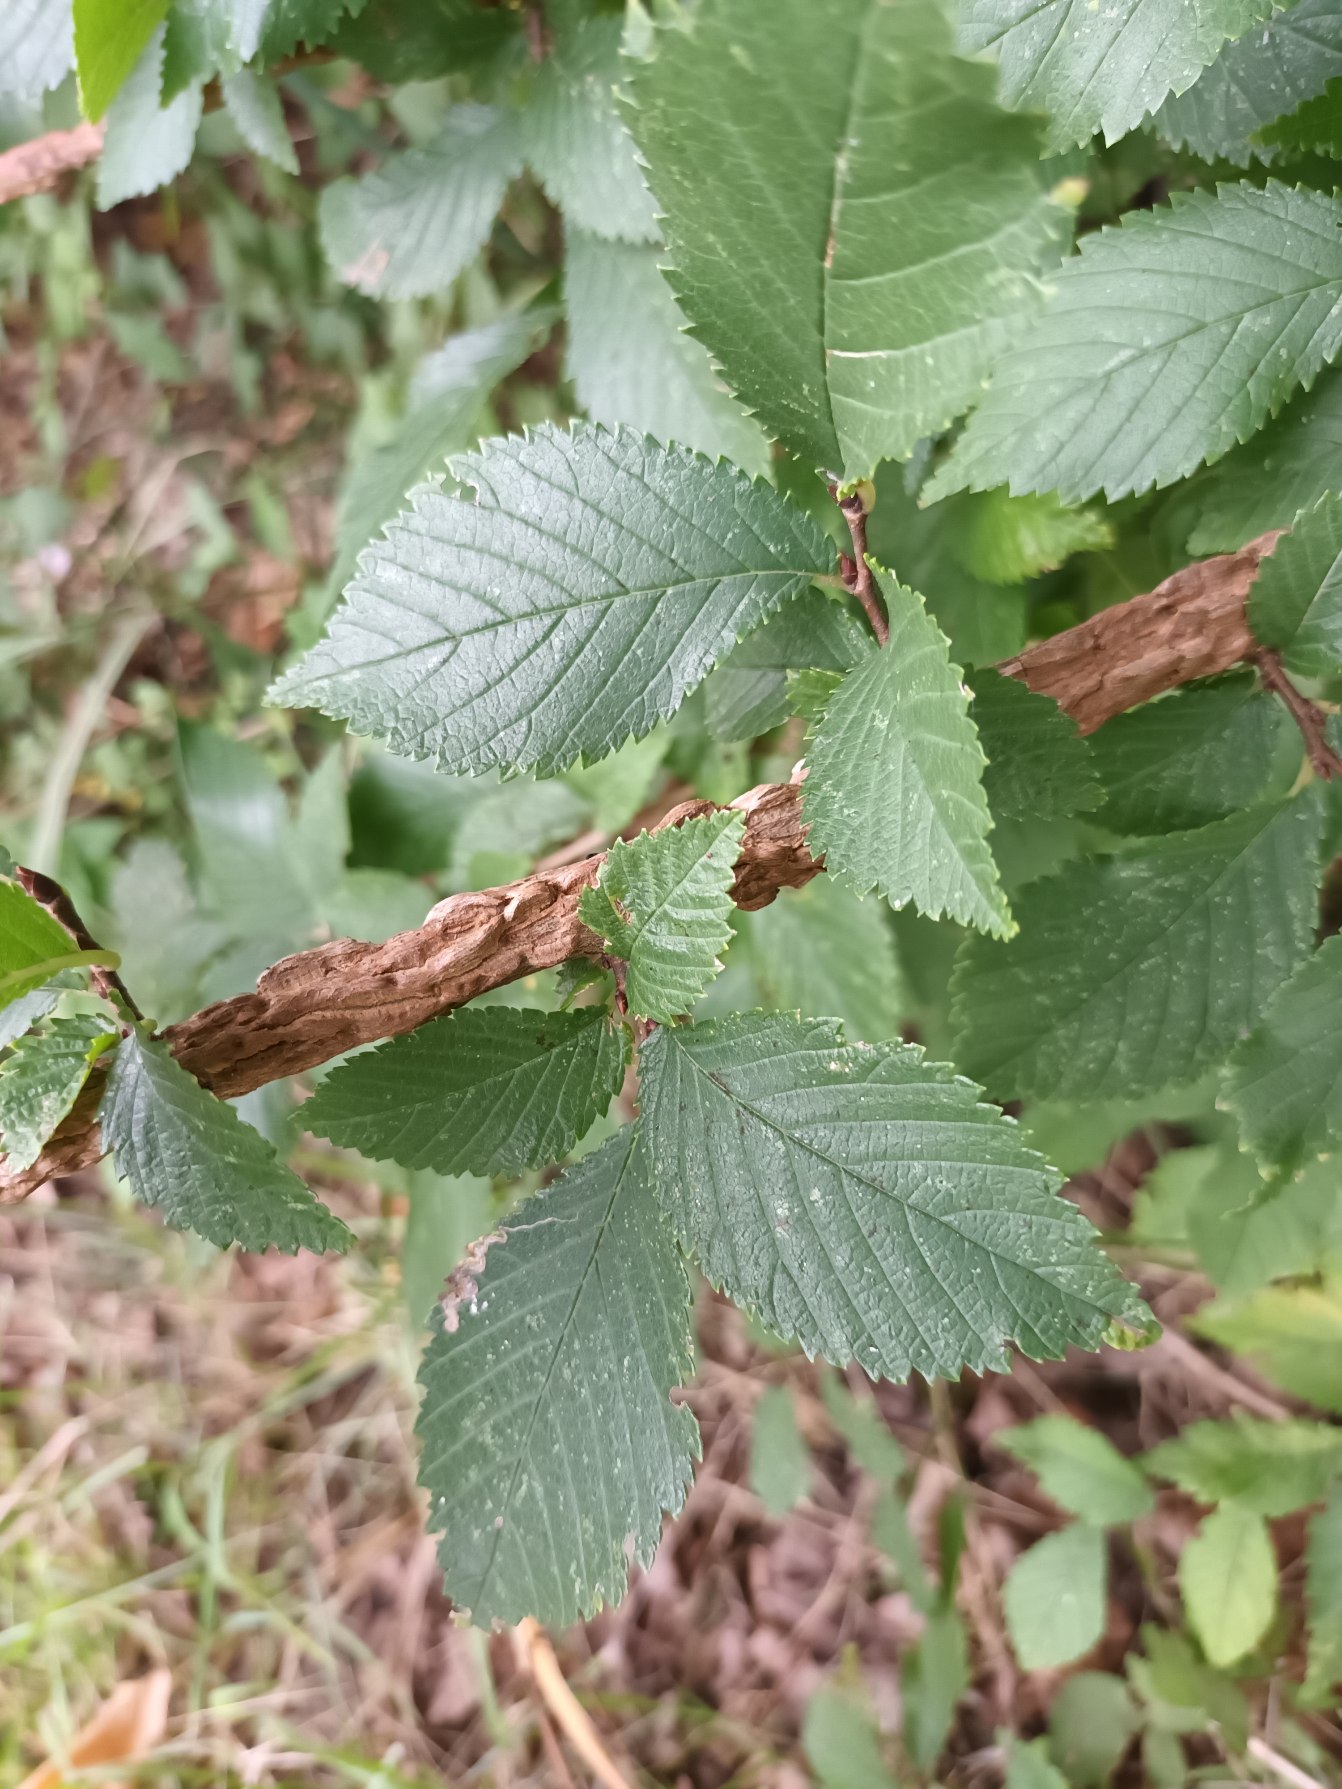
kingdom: Plantae
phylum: Tracheophyta
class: Magnoliopsida
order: Rosales
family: Ulmaceae
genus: Ulmus
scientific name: Ulmus minor
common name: Småbladet elm
